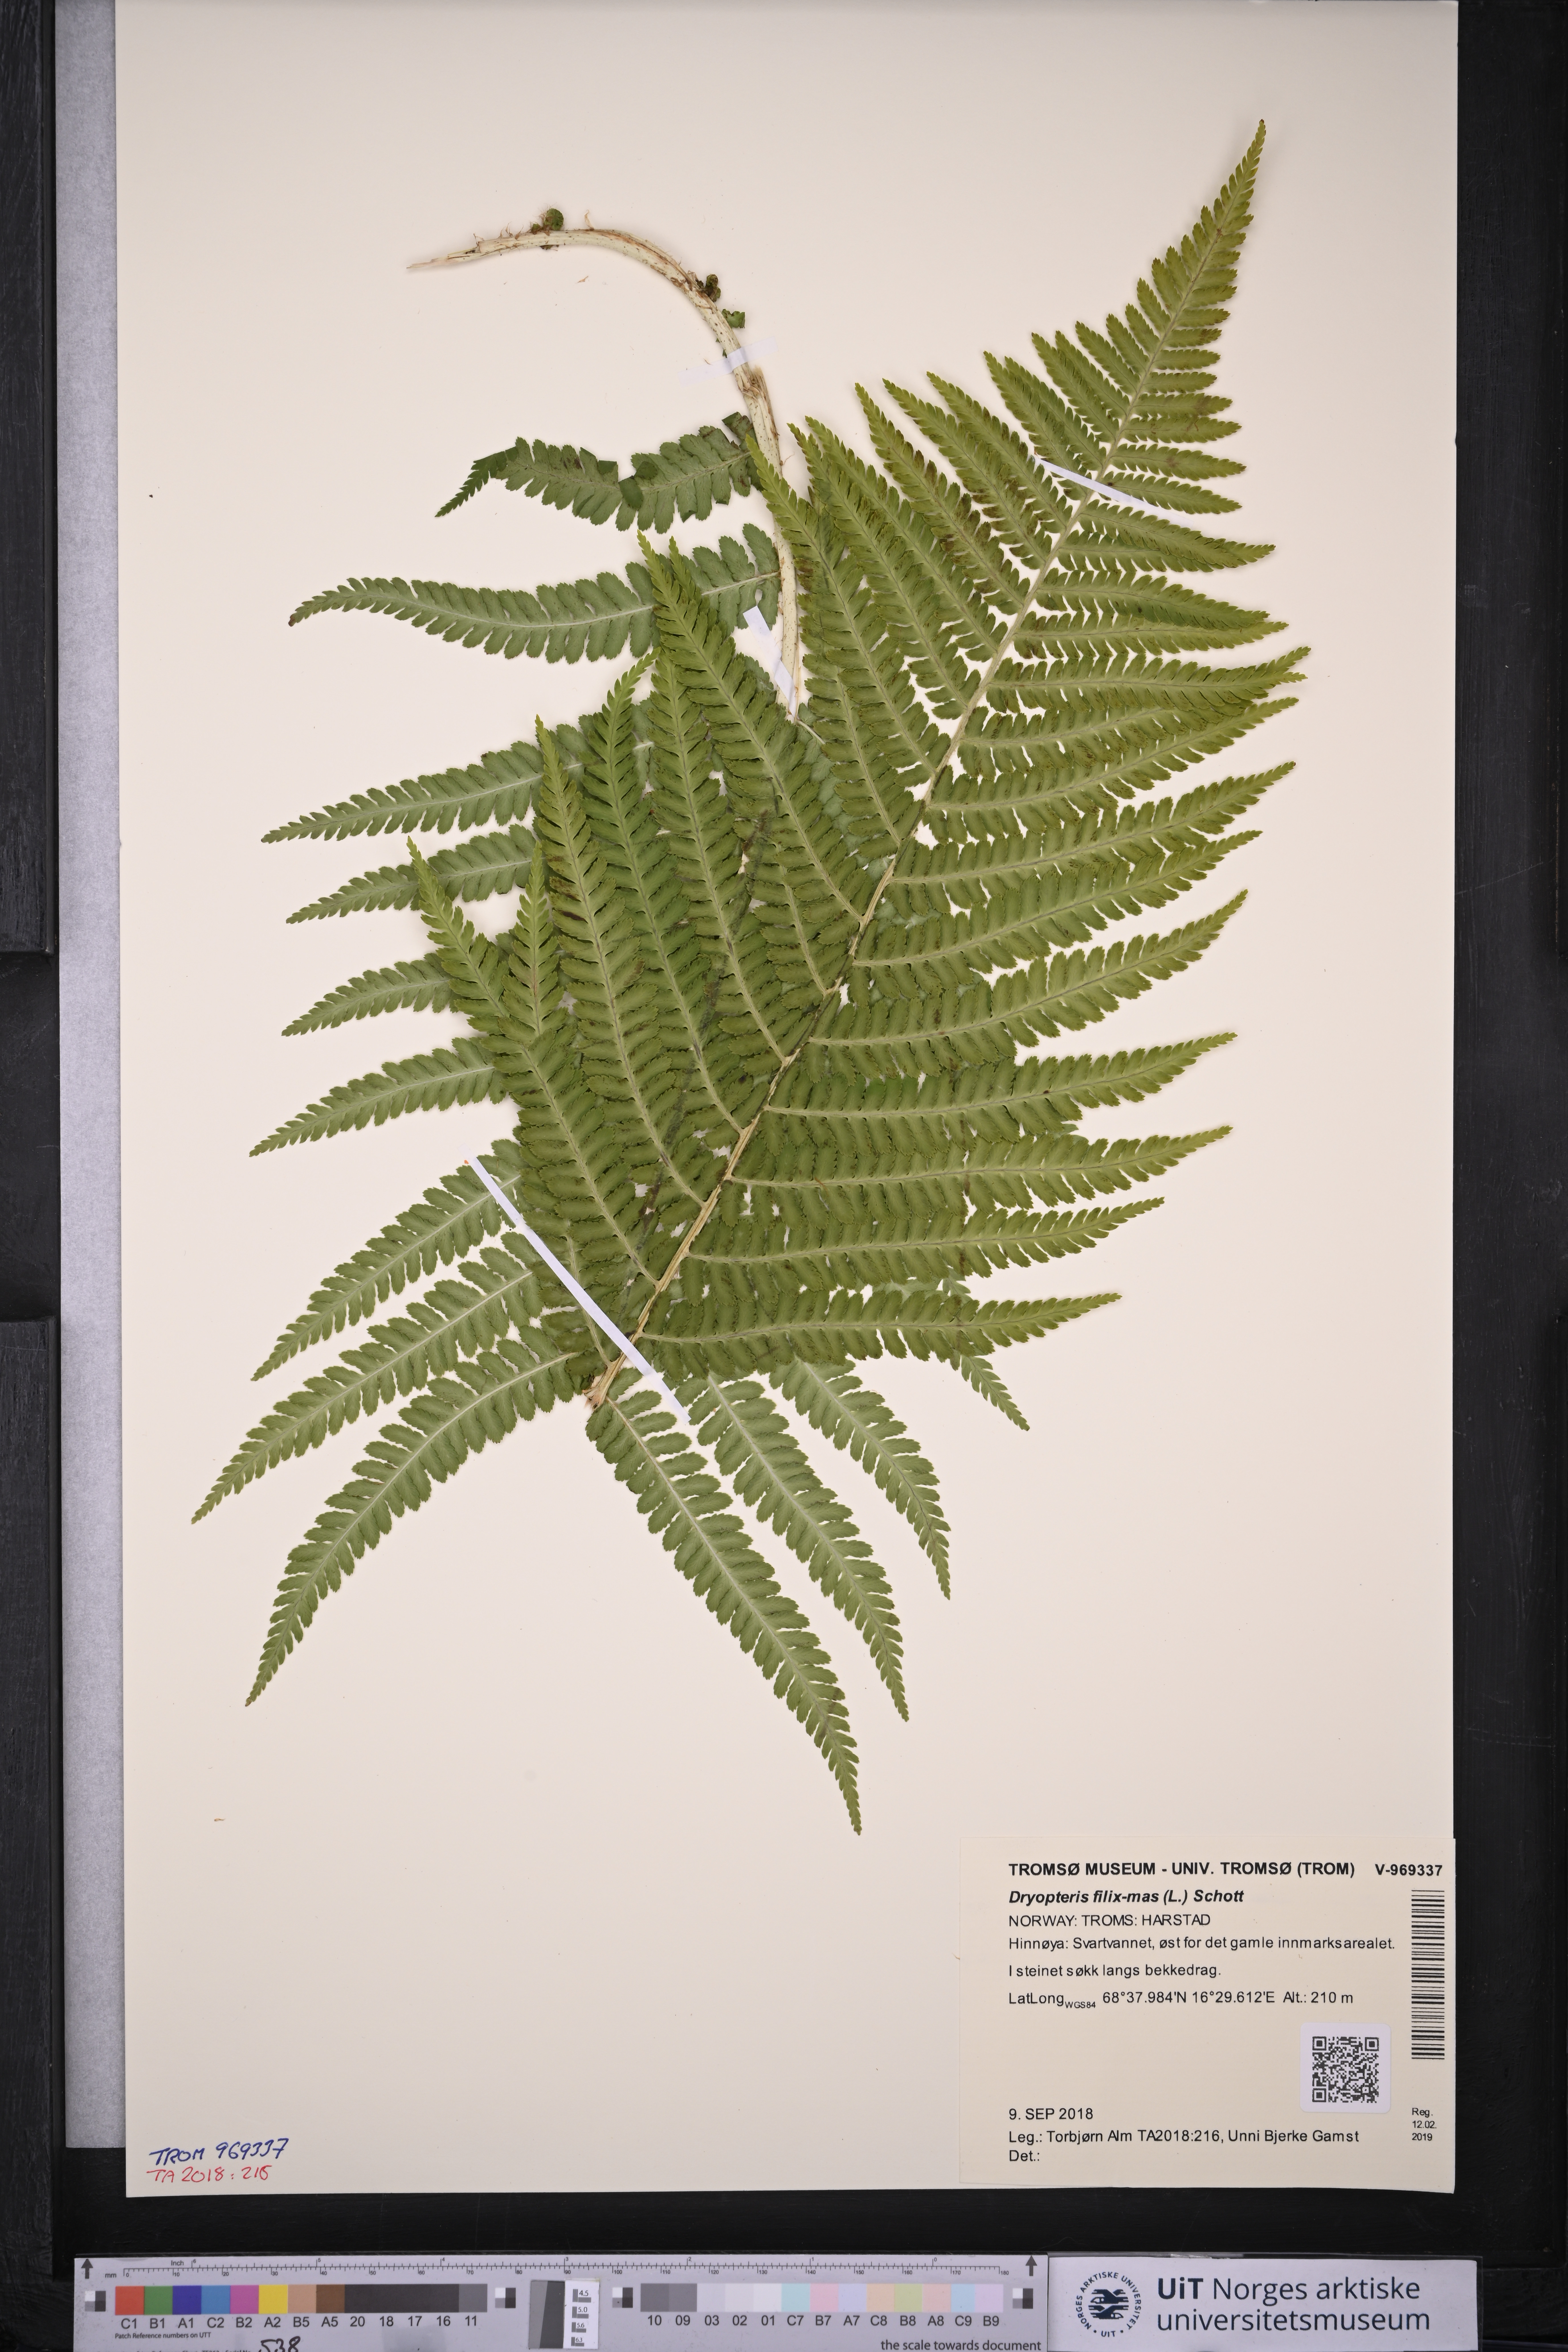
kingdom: Plantae
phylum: Tracheophyta
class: Polypodiopsida
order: Polypodiales
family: Dryopteridaceae
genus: Dryopteris
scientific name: Dryopteris filix-mas
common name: Male fern
